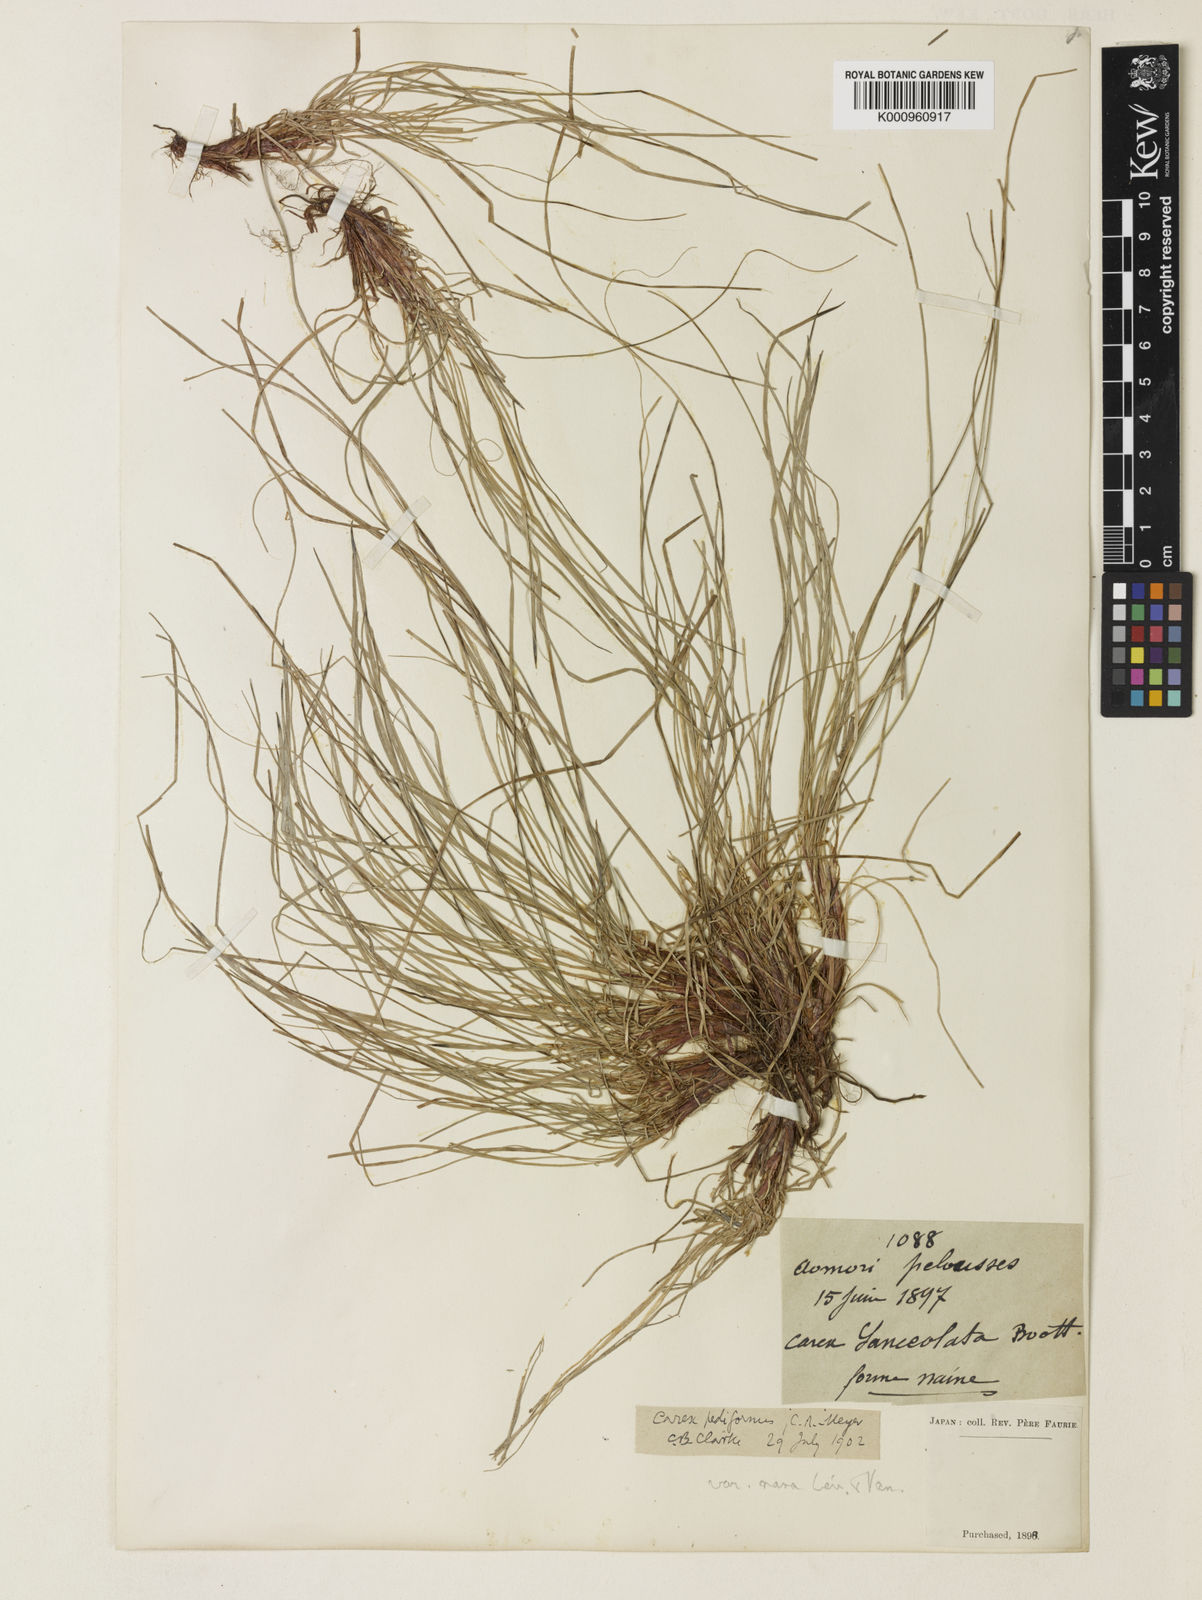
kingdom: Plantae
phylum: Tracheophyta
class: Liliopsida
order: Poales
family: Cyperaceae
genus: Carex
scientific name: Carex lanceolata
